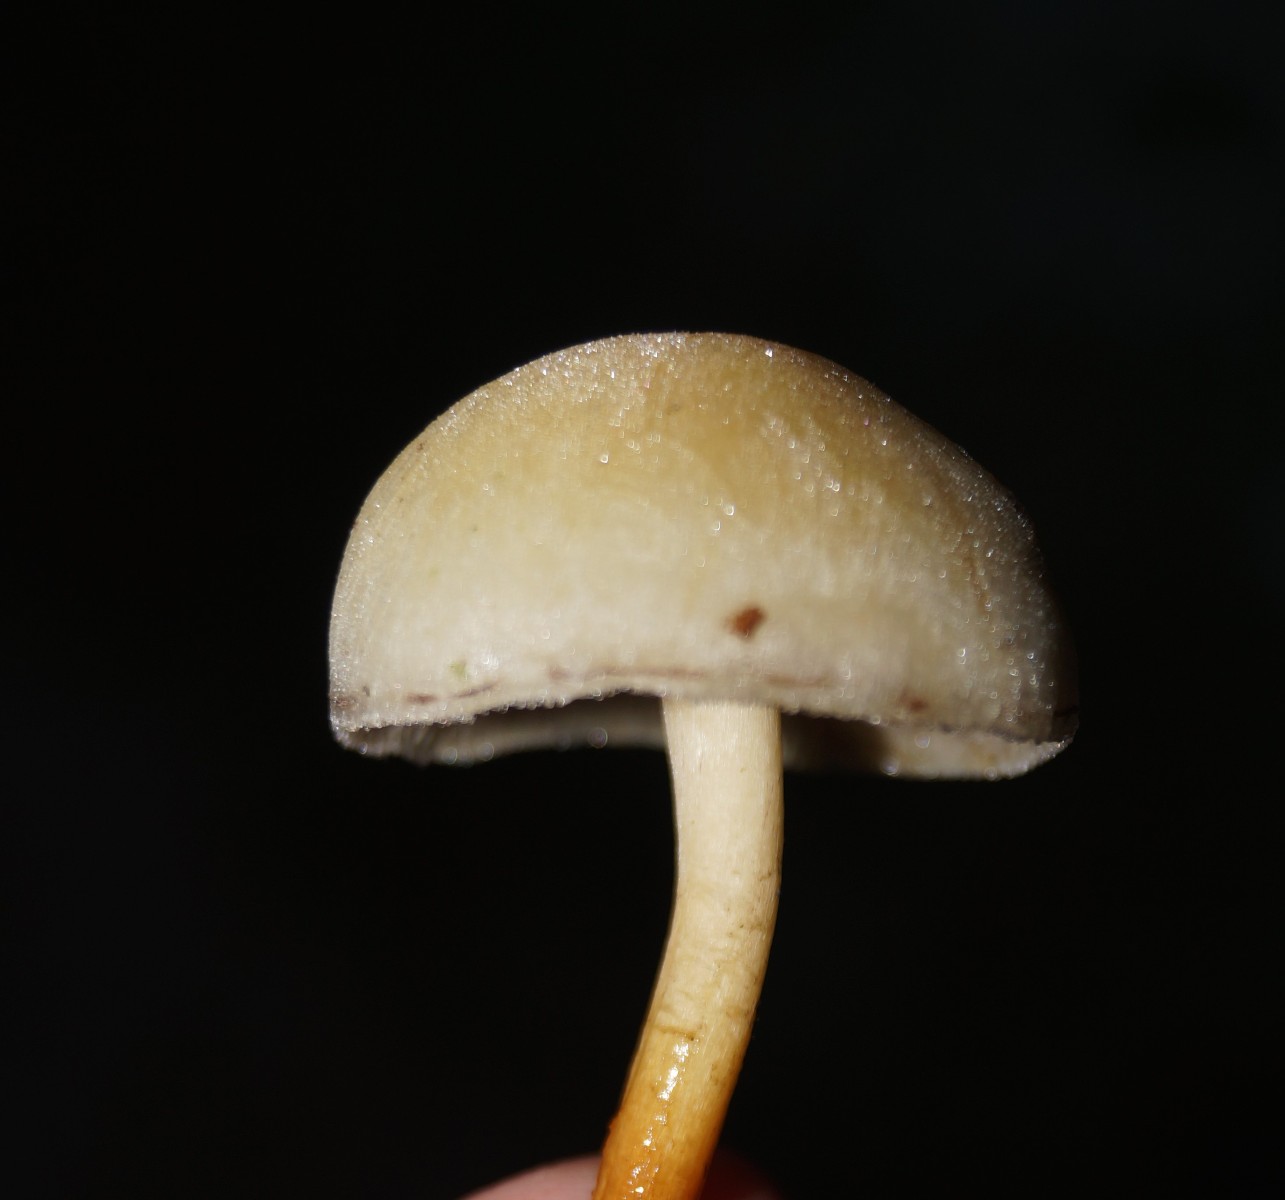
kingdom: Fungi
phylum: Basidiomycota
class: Agaricomycetes
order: Agaricales
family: Strophariaceae
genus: Hypholoma
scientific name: Hypholoma capnoides
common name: gran-svovlhat
